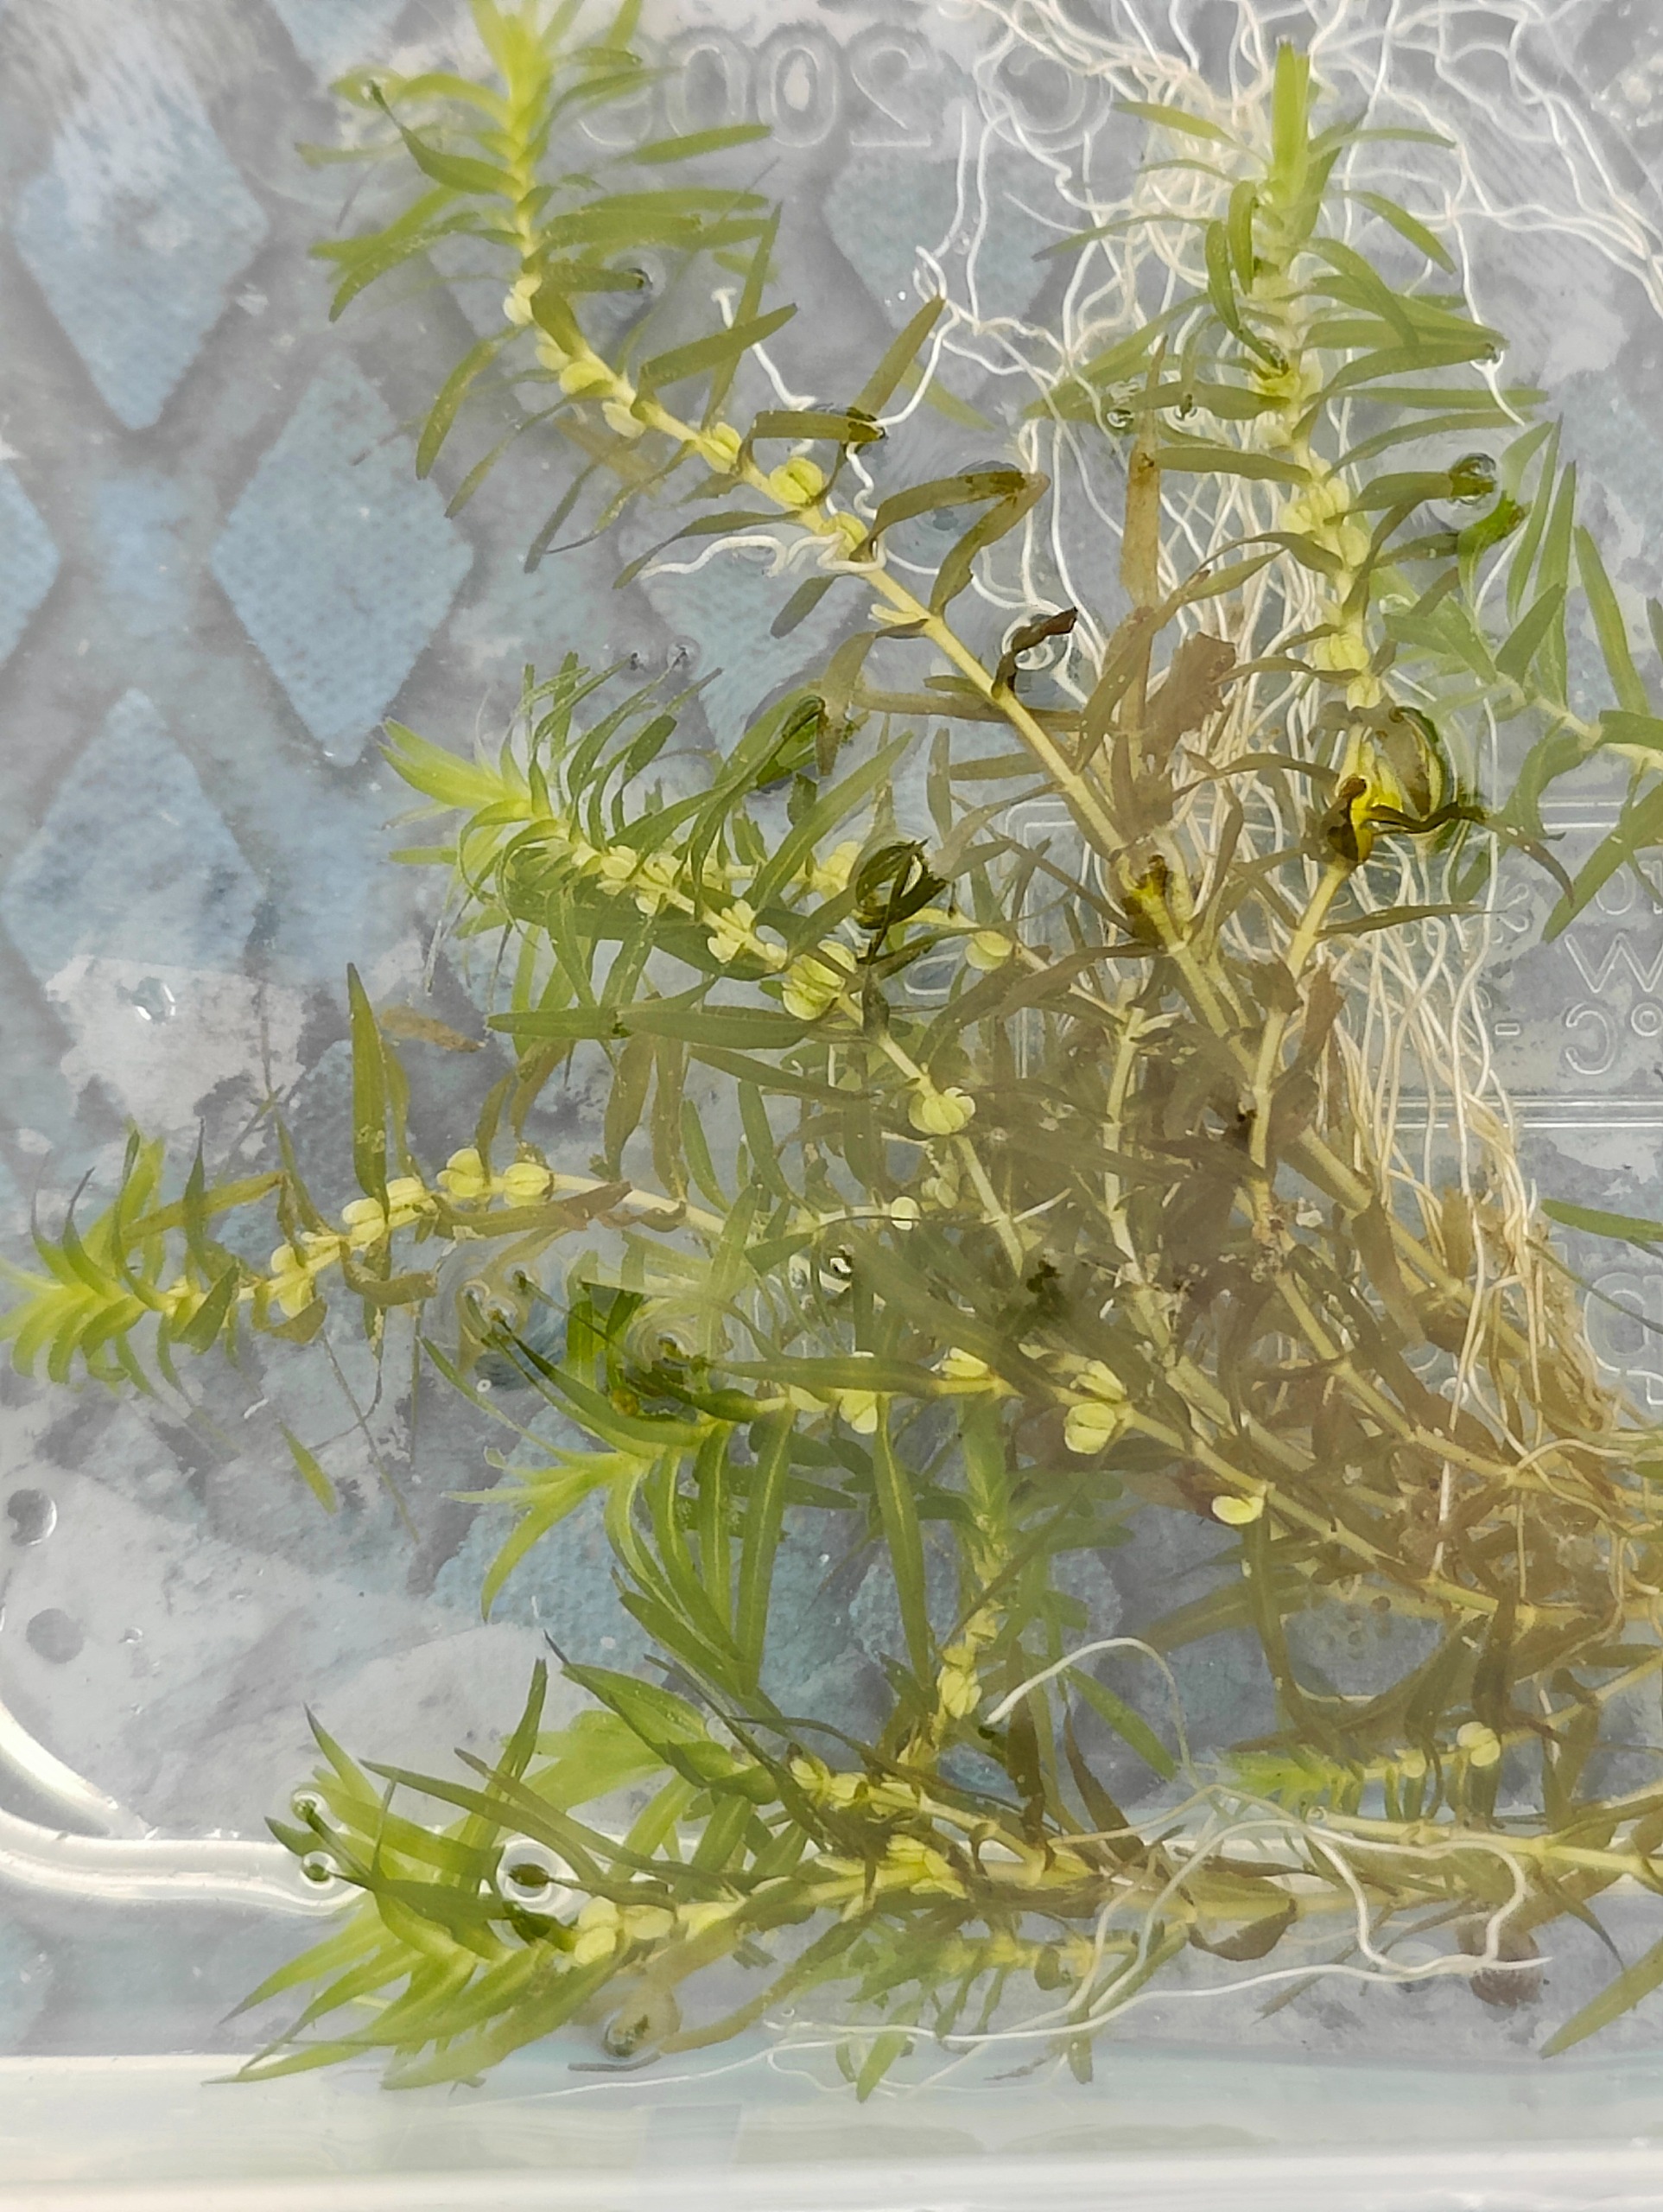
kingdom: Plantae
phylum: Tracheophyta
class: Magnoliopsida
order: Lamiales
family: Plantaginaceae
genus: Callitriche
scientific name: Callitriche hermaphroditica
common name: Høst-vandstjerne
